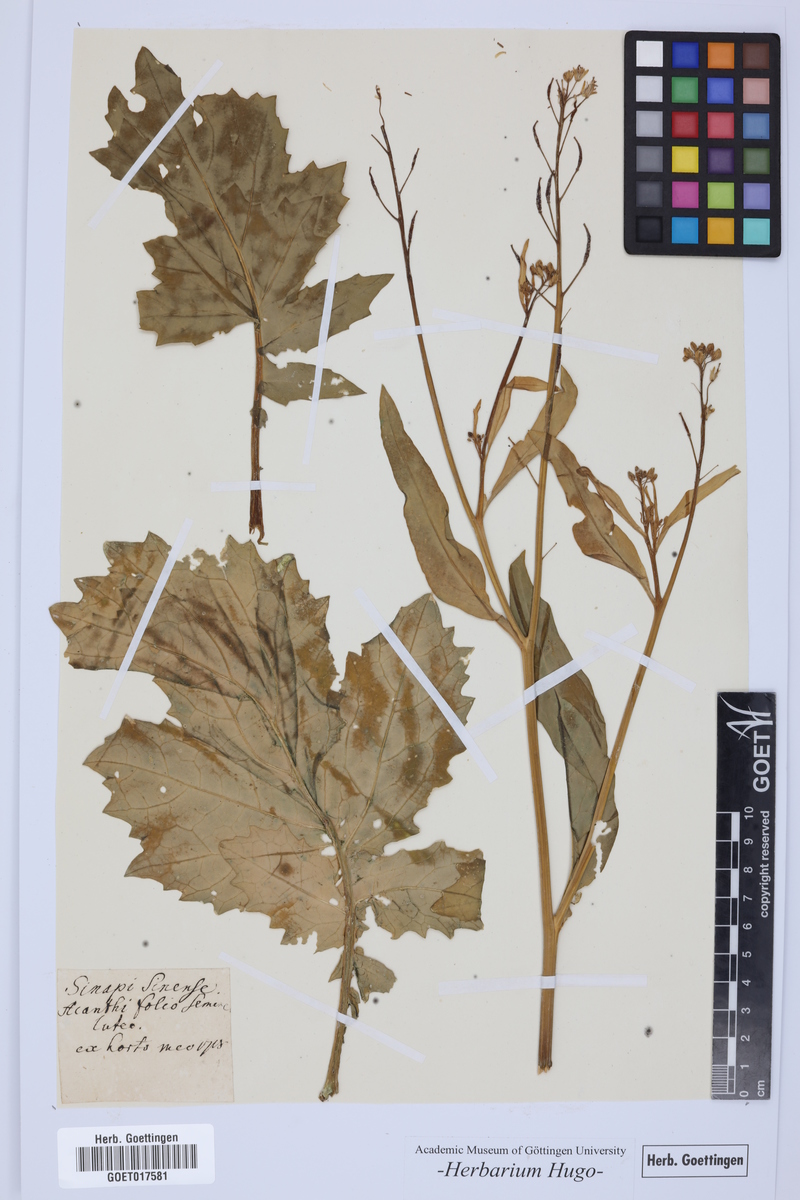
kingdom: Plantae
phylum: Tracheophyta
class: Magnoliopsida
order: Brassicales
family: Brassicaceae
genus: Sinapi
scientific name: Sinapi
